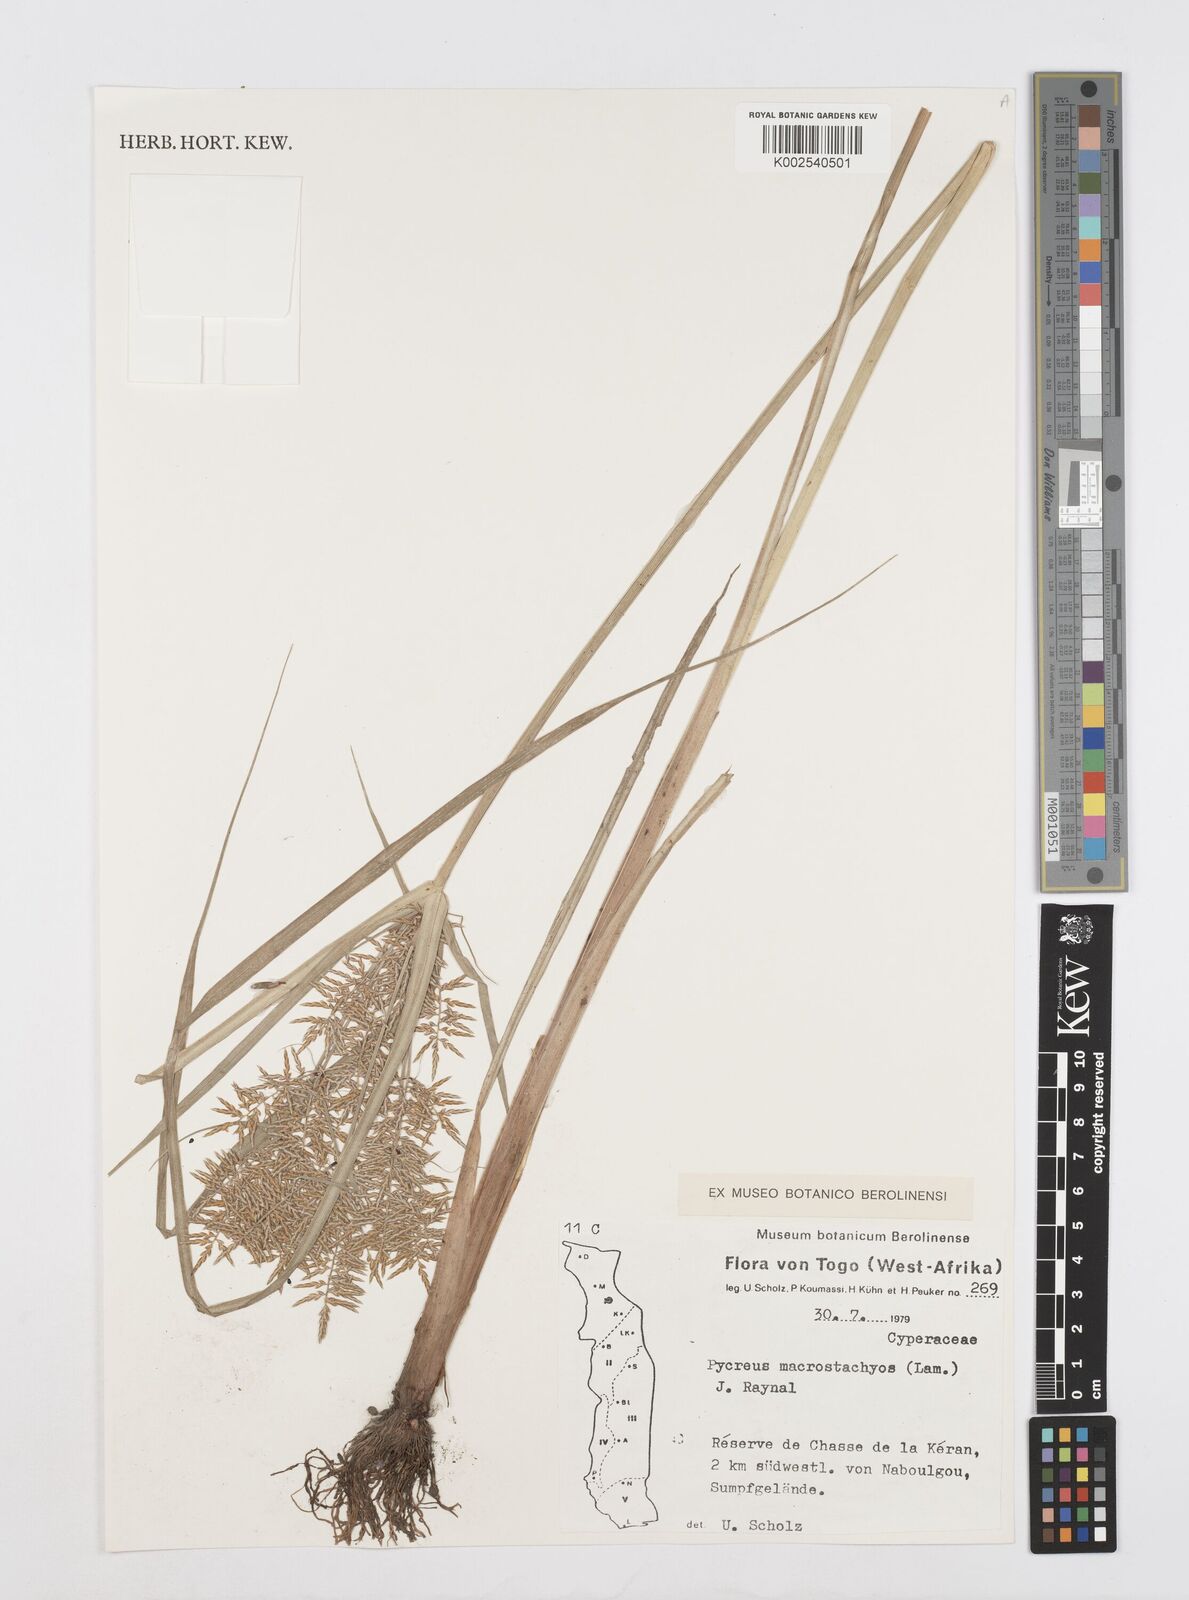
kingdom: Plantae
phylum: Tracheophyta
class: Liliopsida
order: Poales
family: Cyperaceae
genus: Cyperus
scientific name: Cyperus macrostachyos
